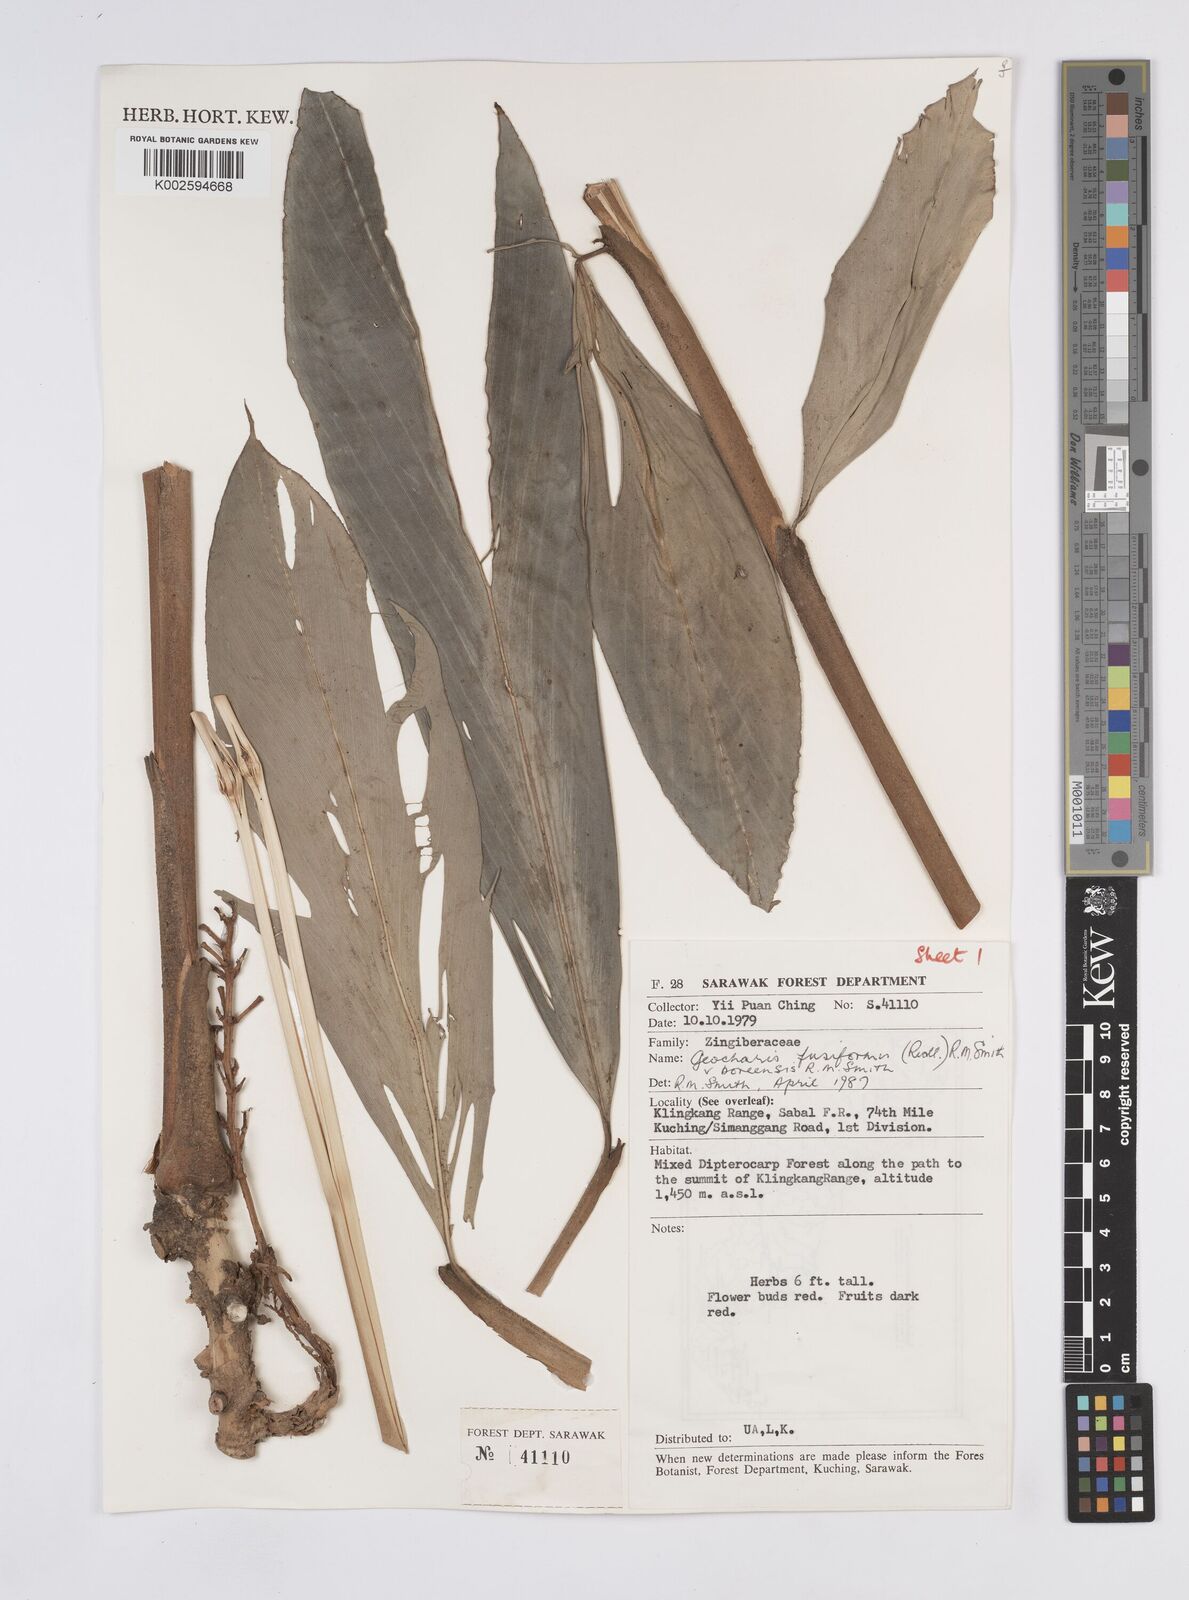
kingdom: Plantae
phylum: Tracheophyta
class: Liliopsida
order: Zingiberales
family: Zingiberaceae
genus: Geocharis
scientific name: Geocharis fusiformis
